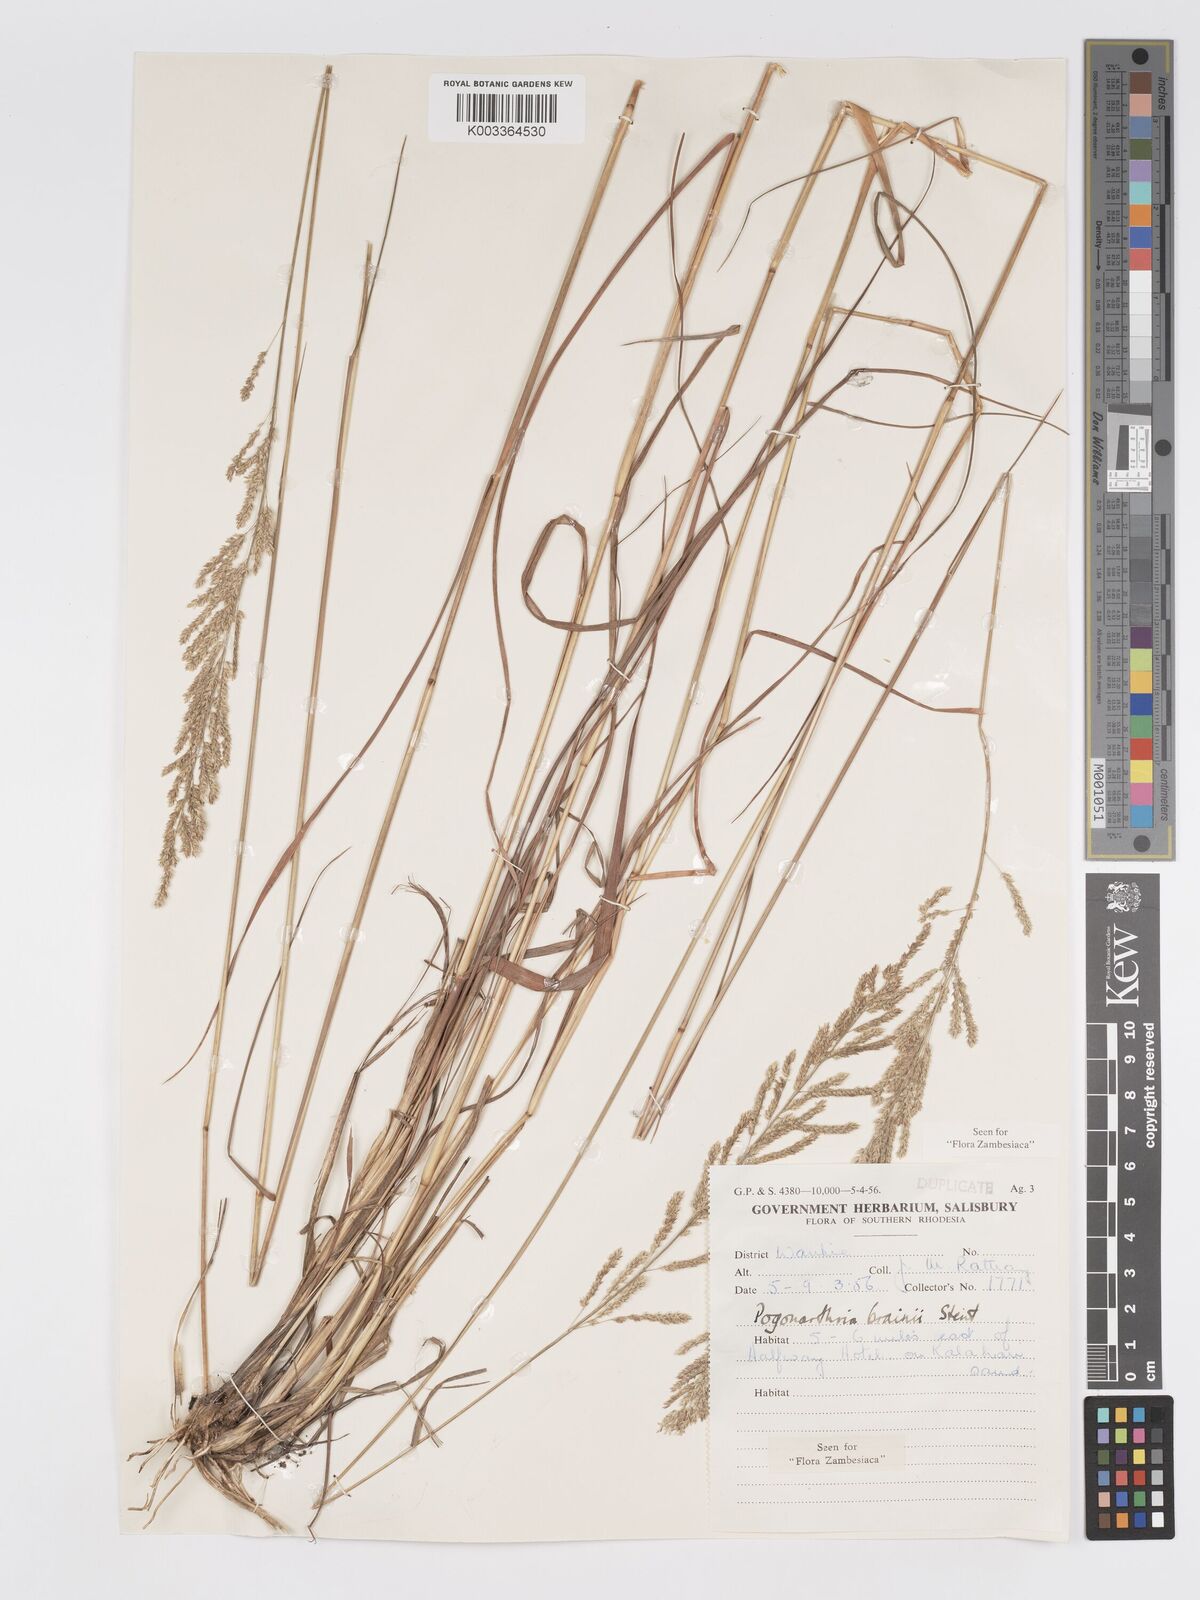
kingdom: Plantae
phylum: Tracheophyta
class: Liliopsida
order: Poales
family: Poaceae
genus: Eragrostis
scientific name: Eragrostis brainii
